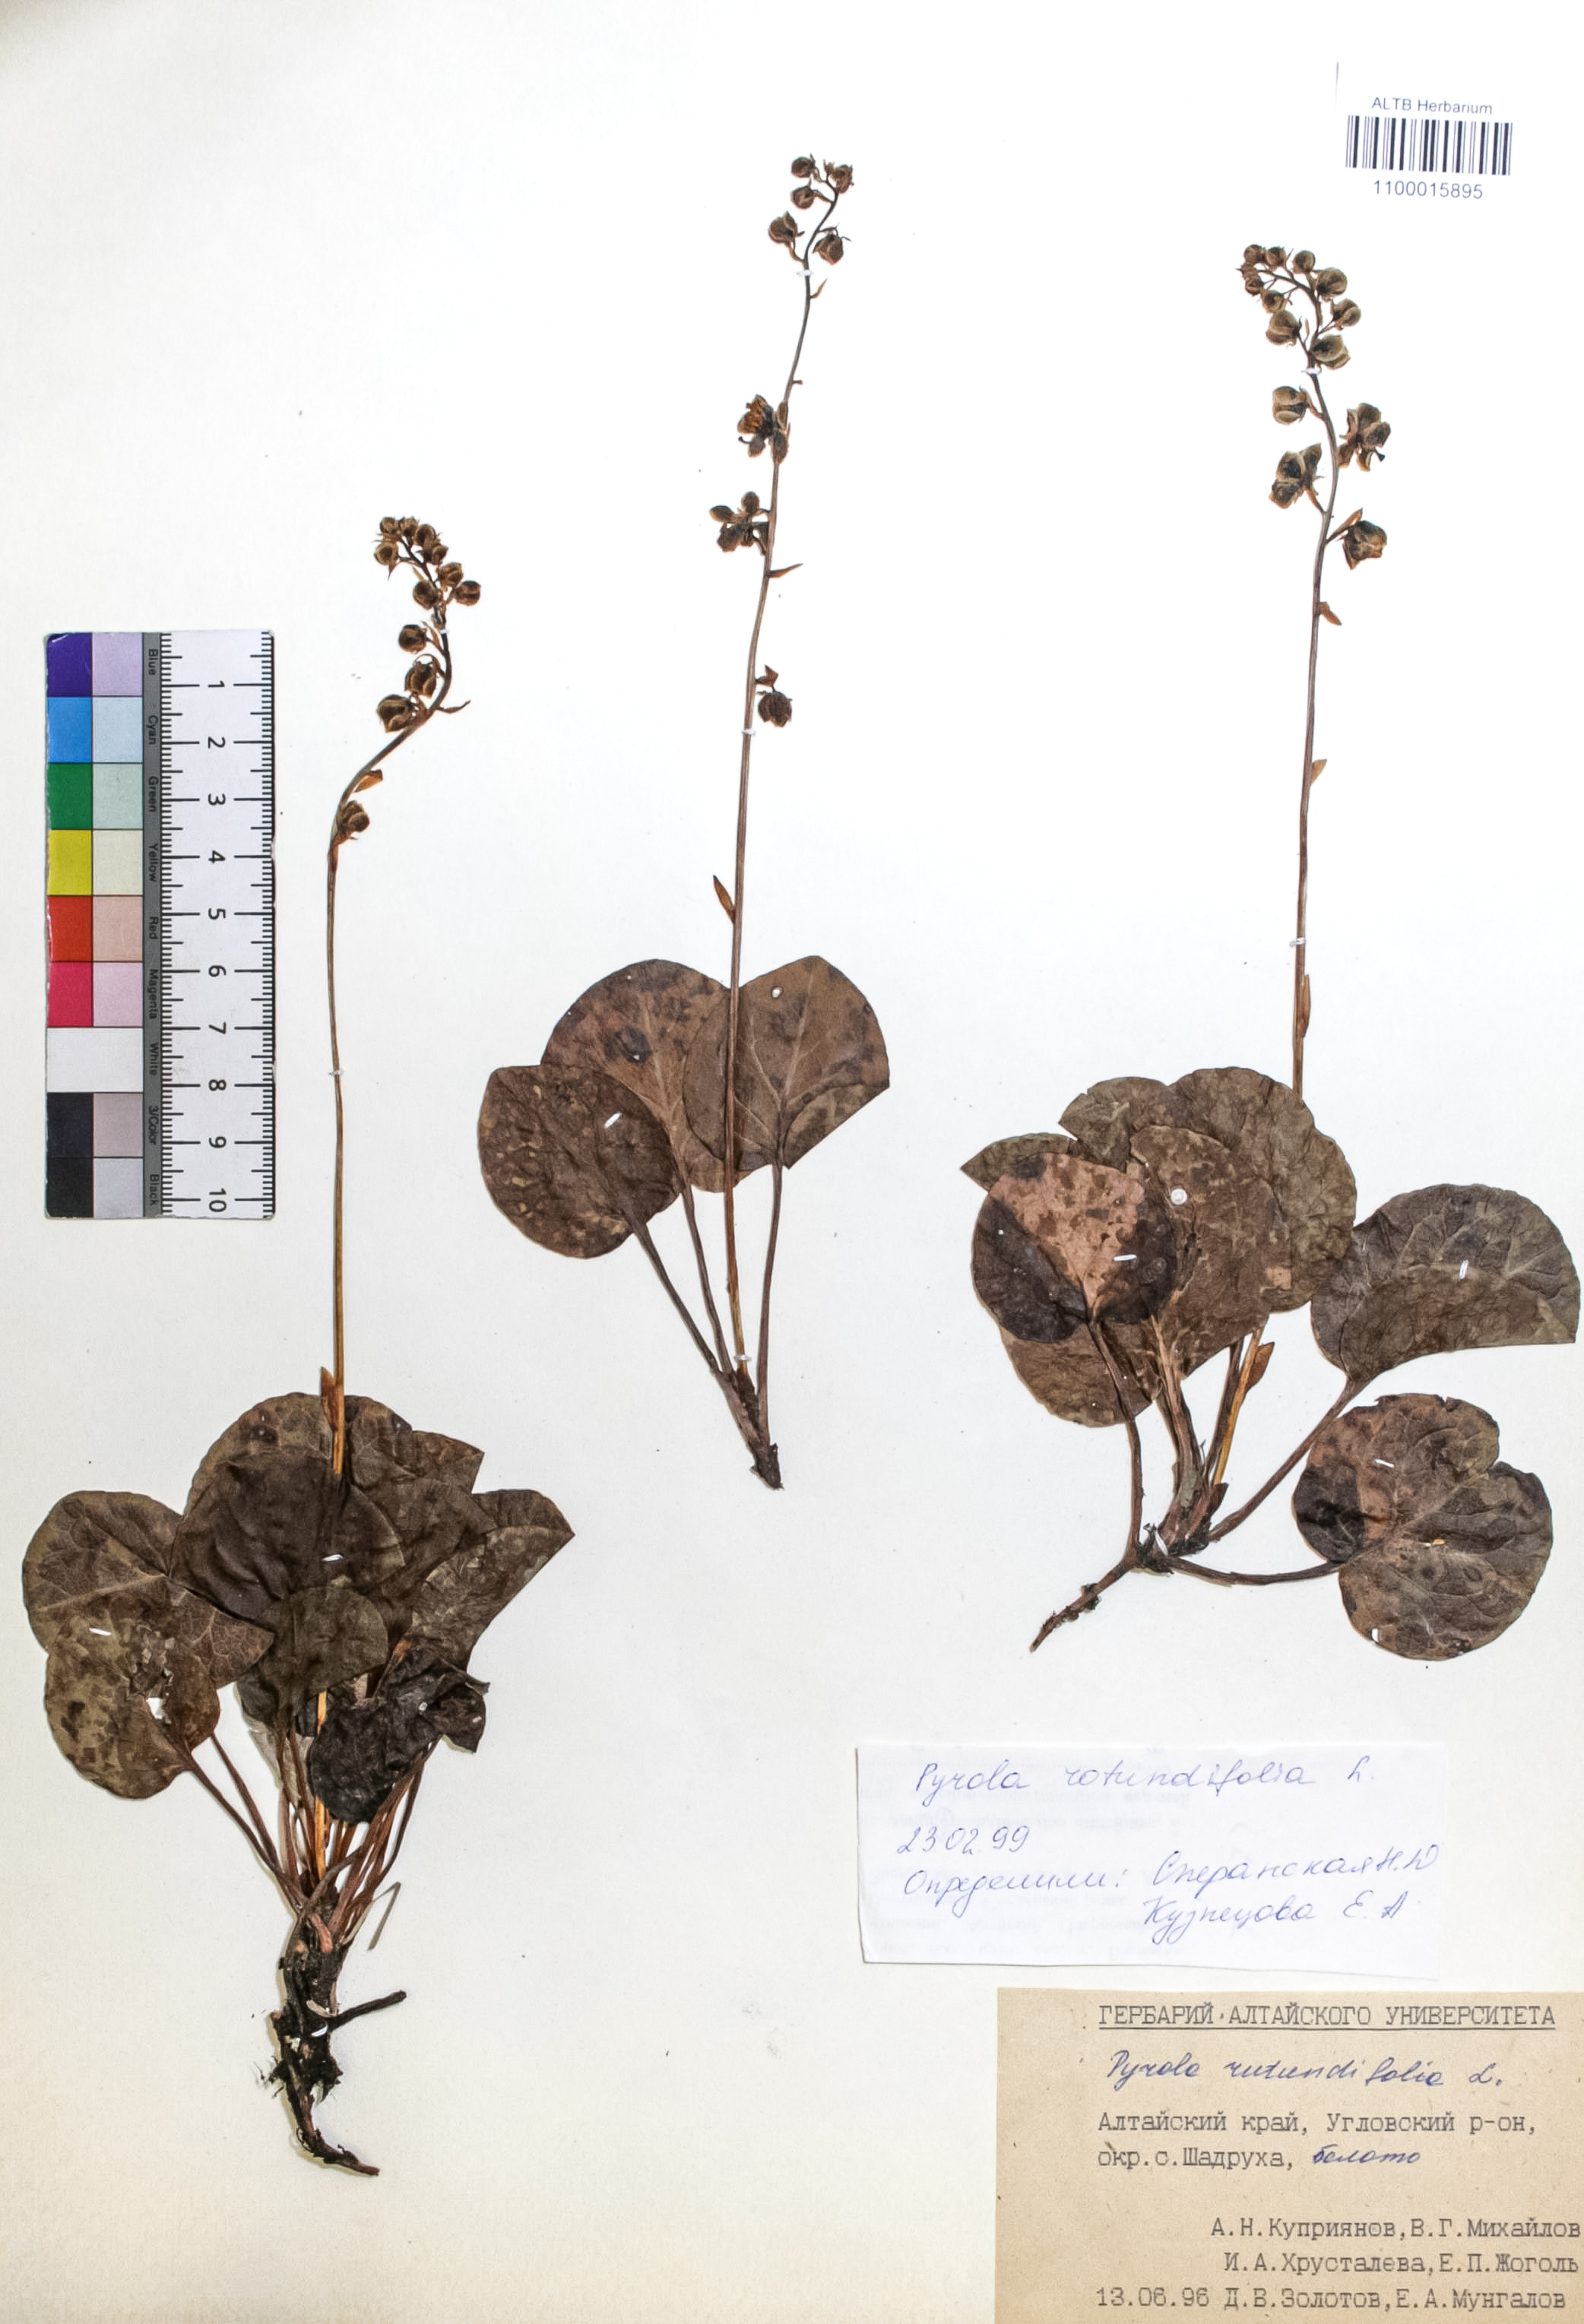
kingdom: Plantae
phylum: Tracheophyta
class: Magnoliopsida
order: Ericales
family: Ericaceae
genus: Pyrola
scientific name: Pyrola rotundifolia
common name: Round-leaved wintergreen
